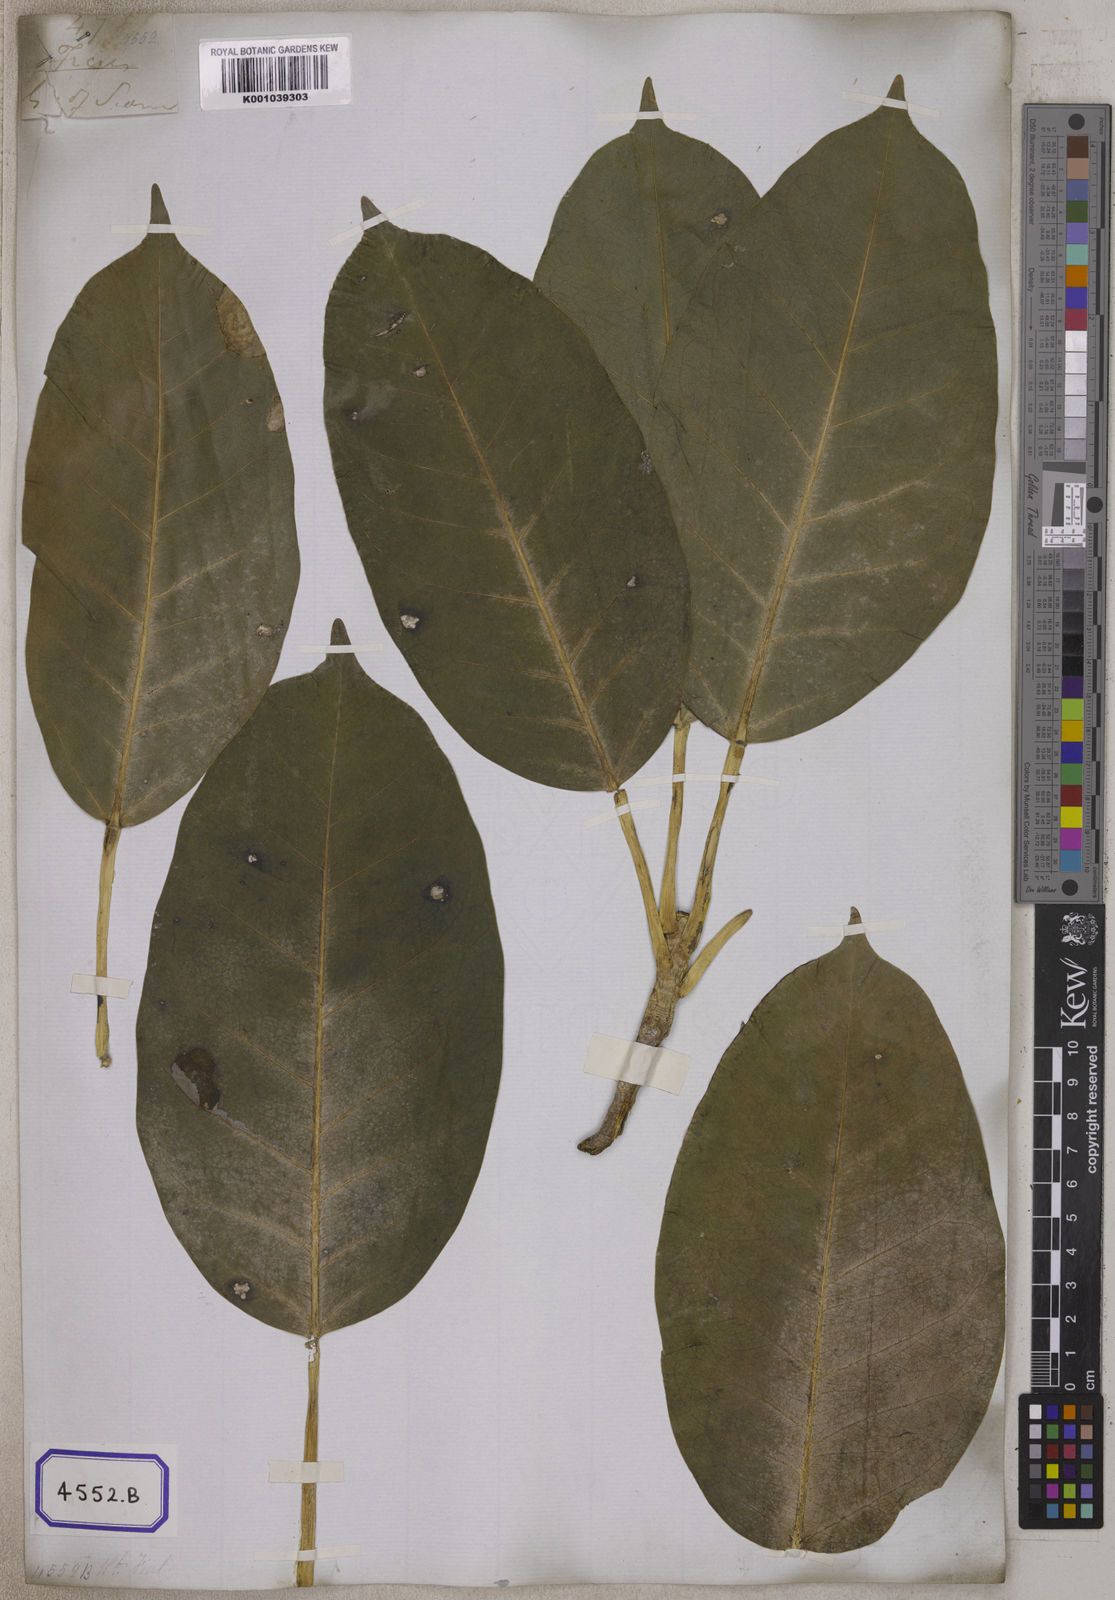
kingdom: Plantae
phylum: Tracheophyta
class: Magnoliopsida
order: Rosales
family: Moraceae
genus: Ficus
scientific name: Ficus
